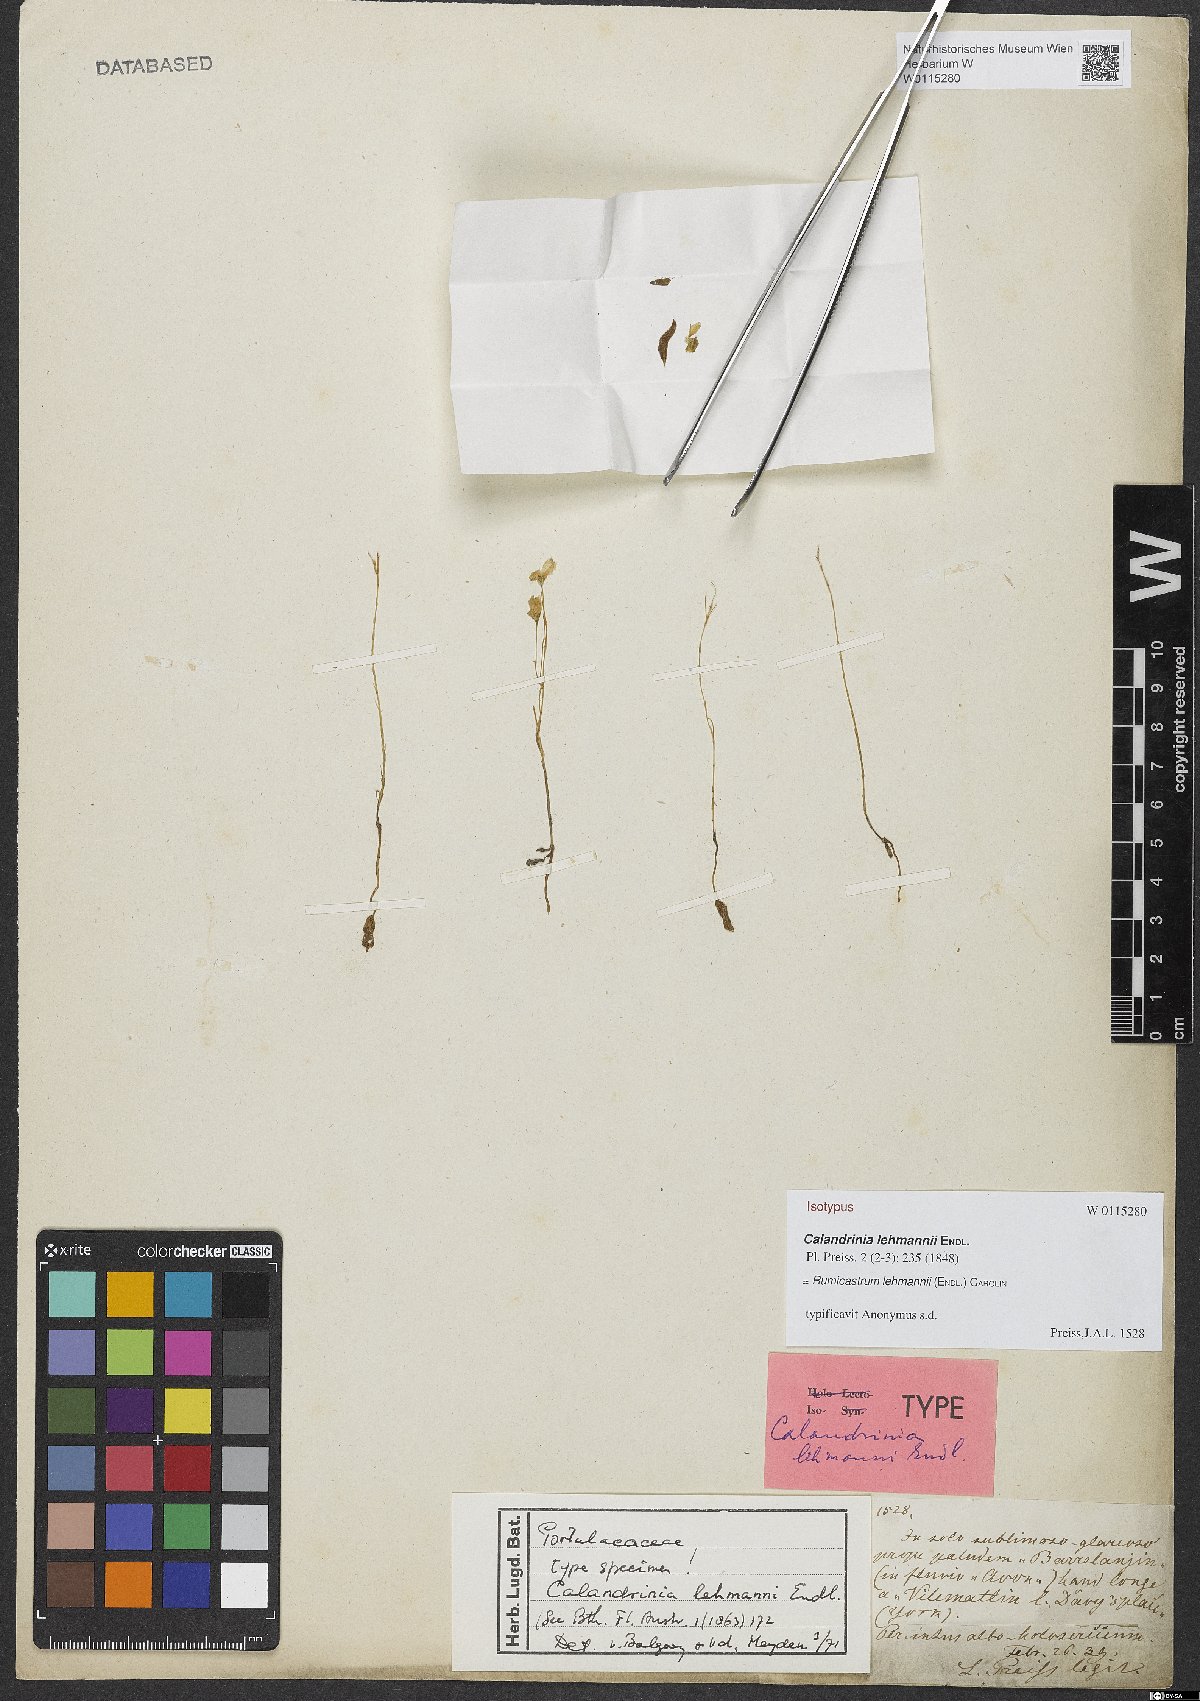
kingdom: Plantae
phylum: Tracheophyta
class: Magnoliopsida
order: Caryophyllales
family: Montiaceae
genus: Rumicastrum
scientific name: Rumicastrum lehmannii
